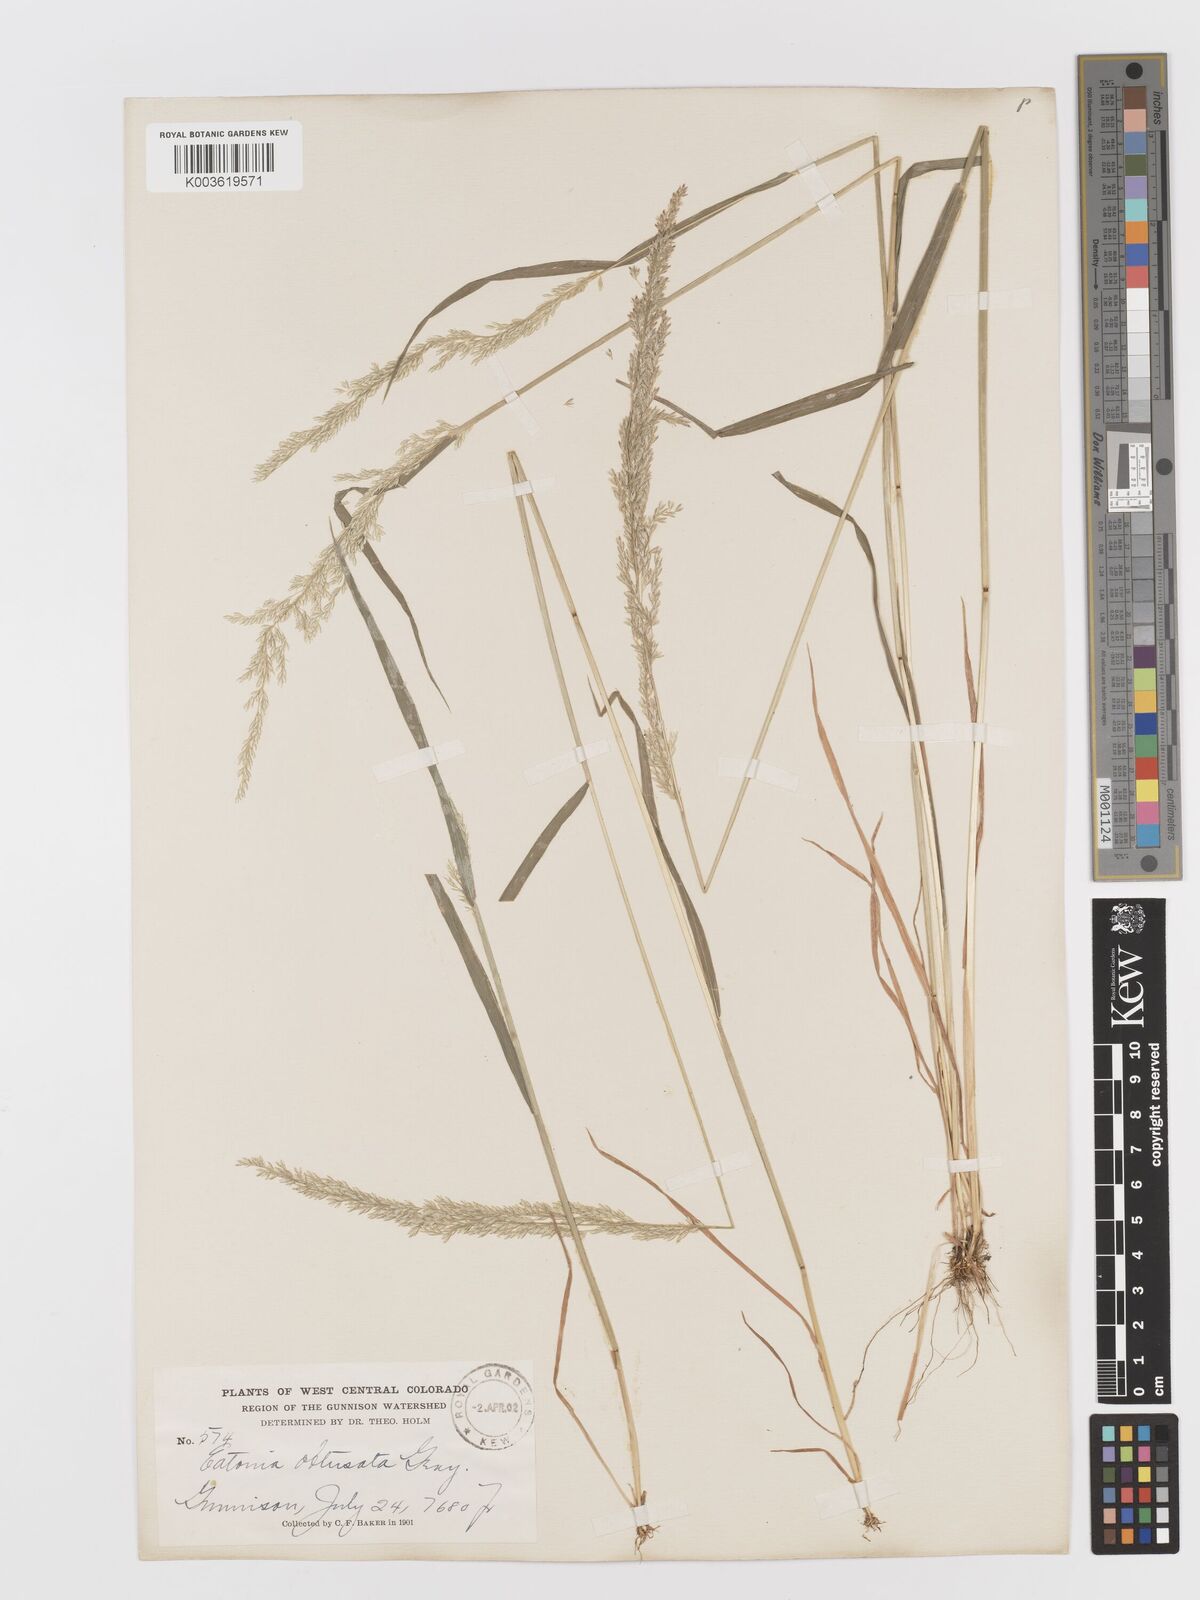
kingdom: Plantae
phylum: Tracheophyta
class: Liliopsida
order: Poales
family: Poaceae
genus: Sphenopholis
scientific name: Sphenopholis obtusata
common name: Prairie grass
